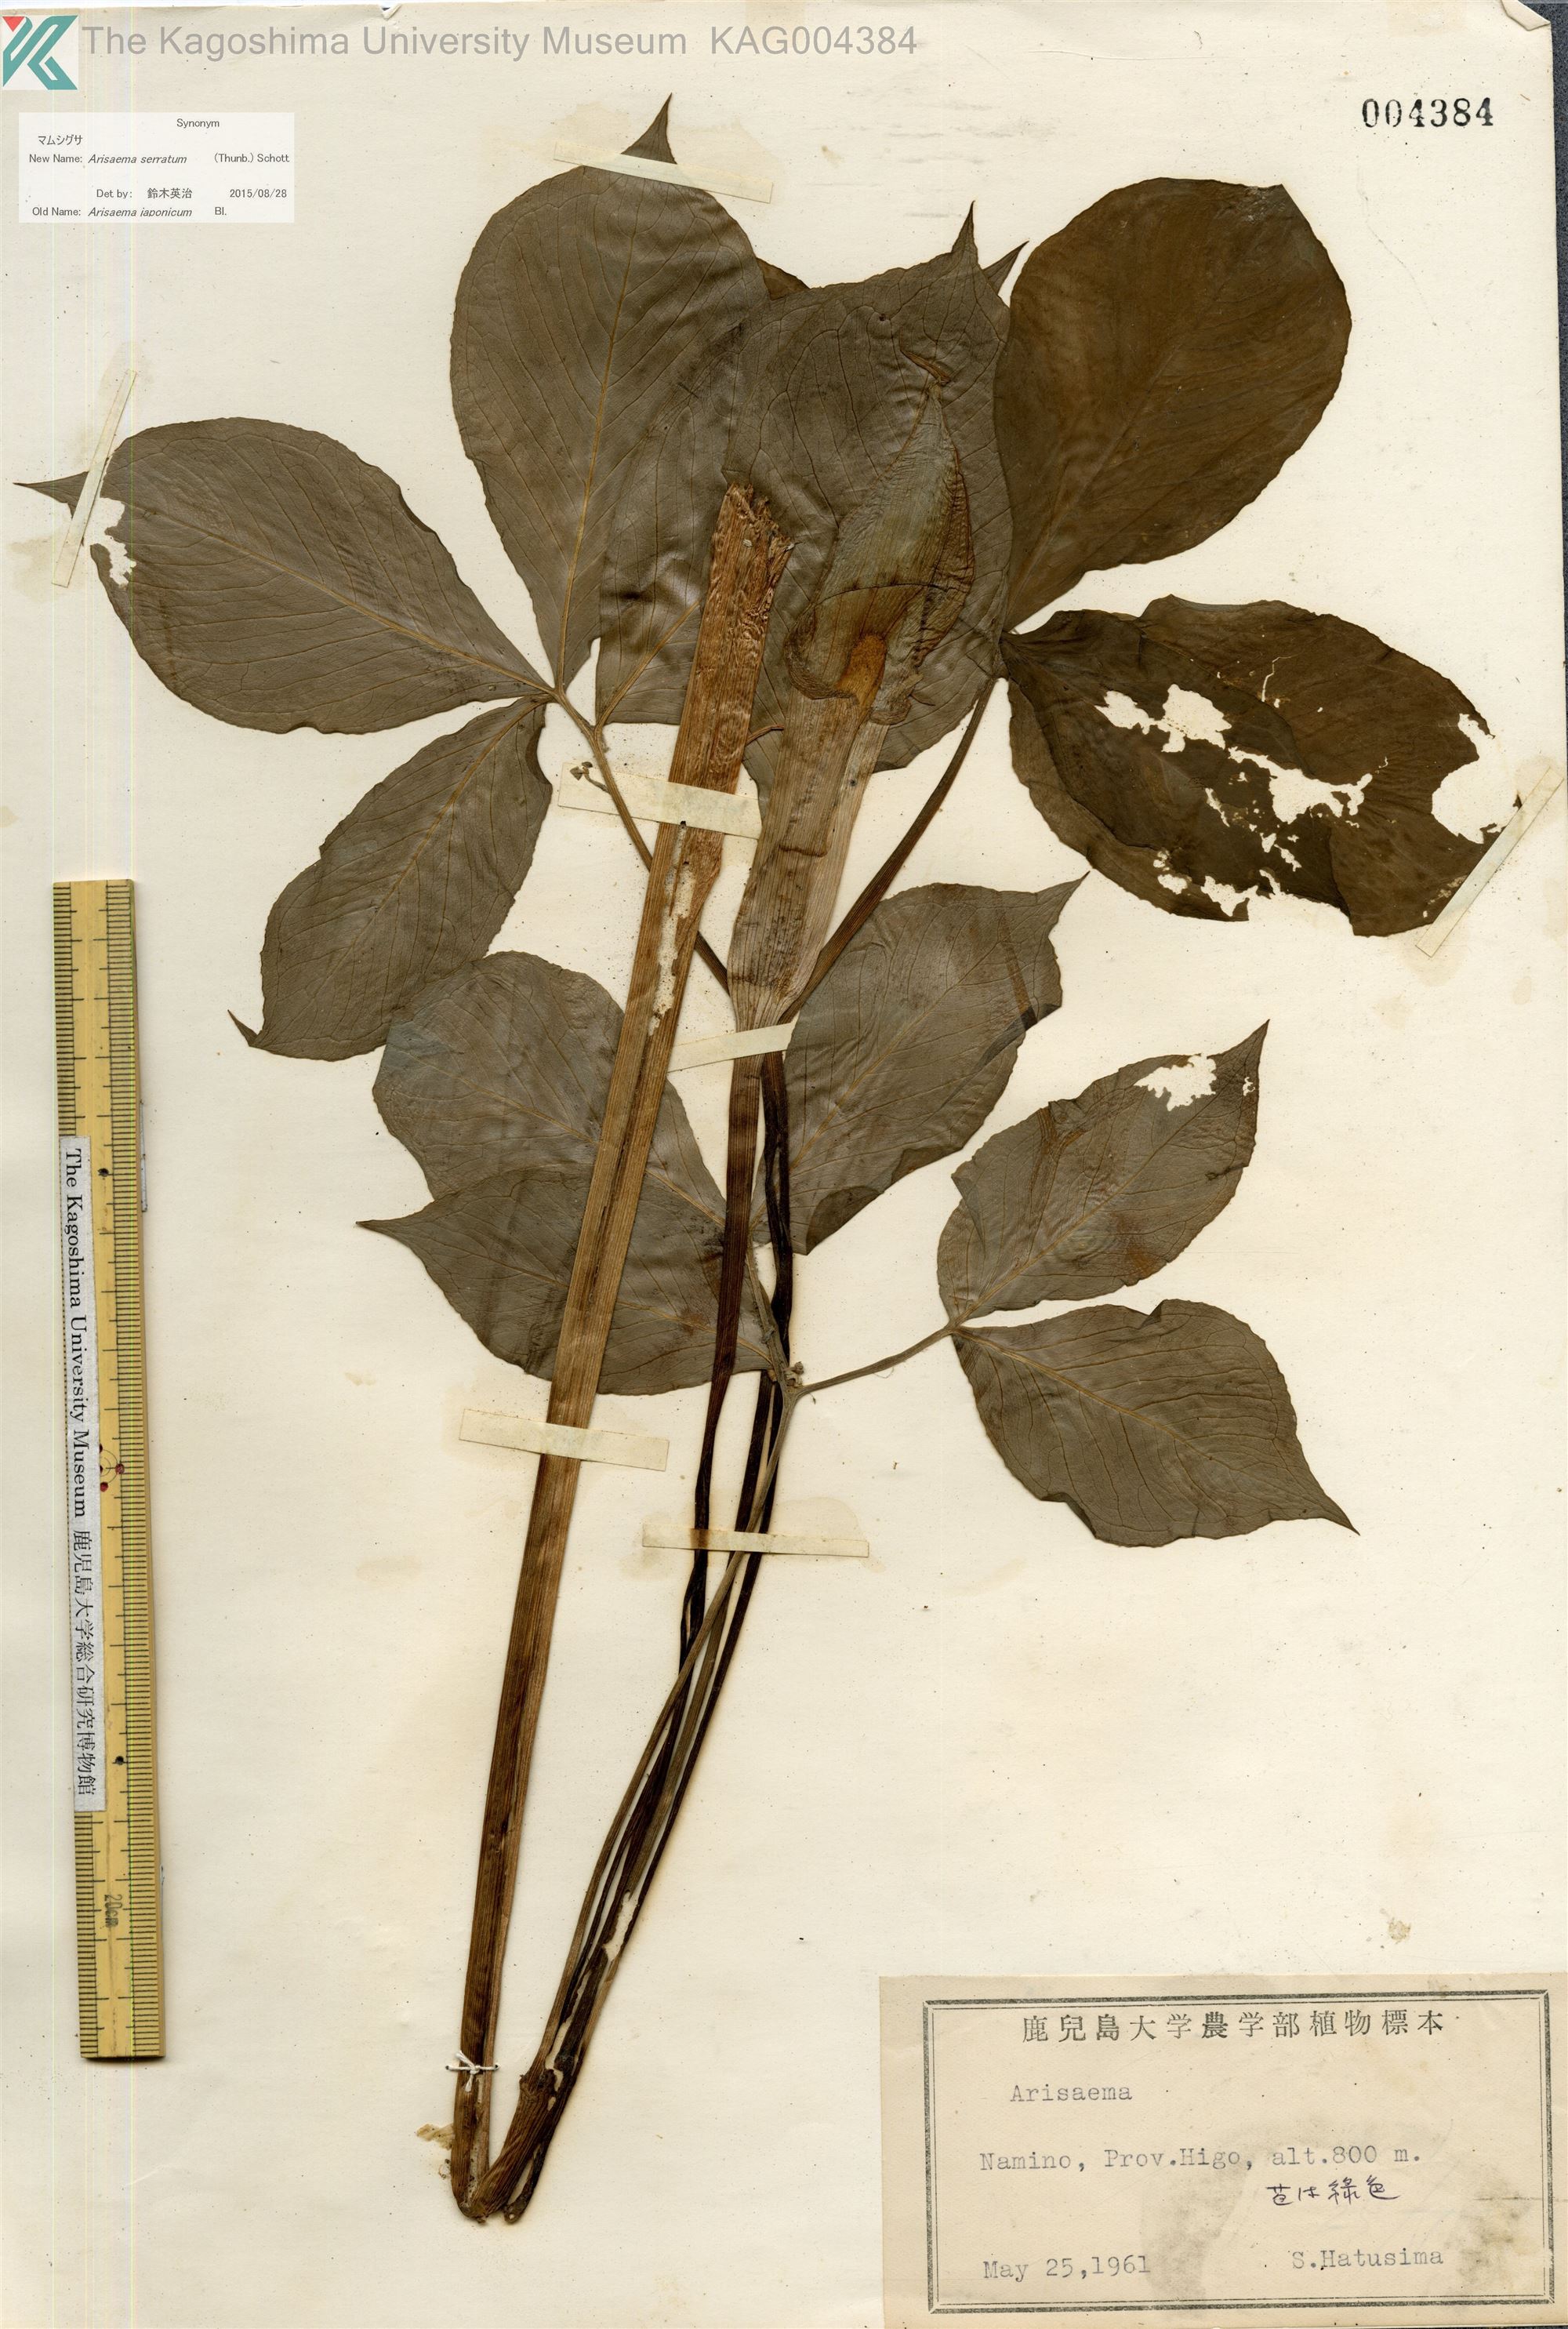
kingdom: Plantae
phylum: Tracheophyta
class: Liliopsida
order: Alismatales
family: Araceae
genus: Arisaema
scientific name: Arisaema serratum
